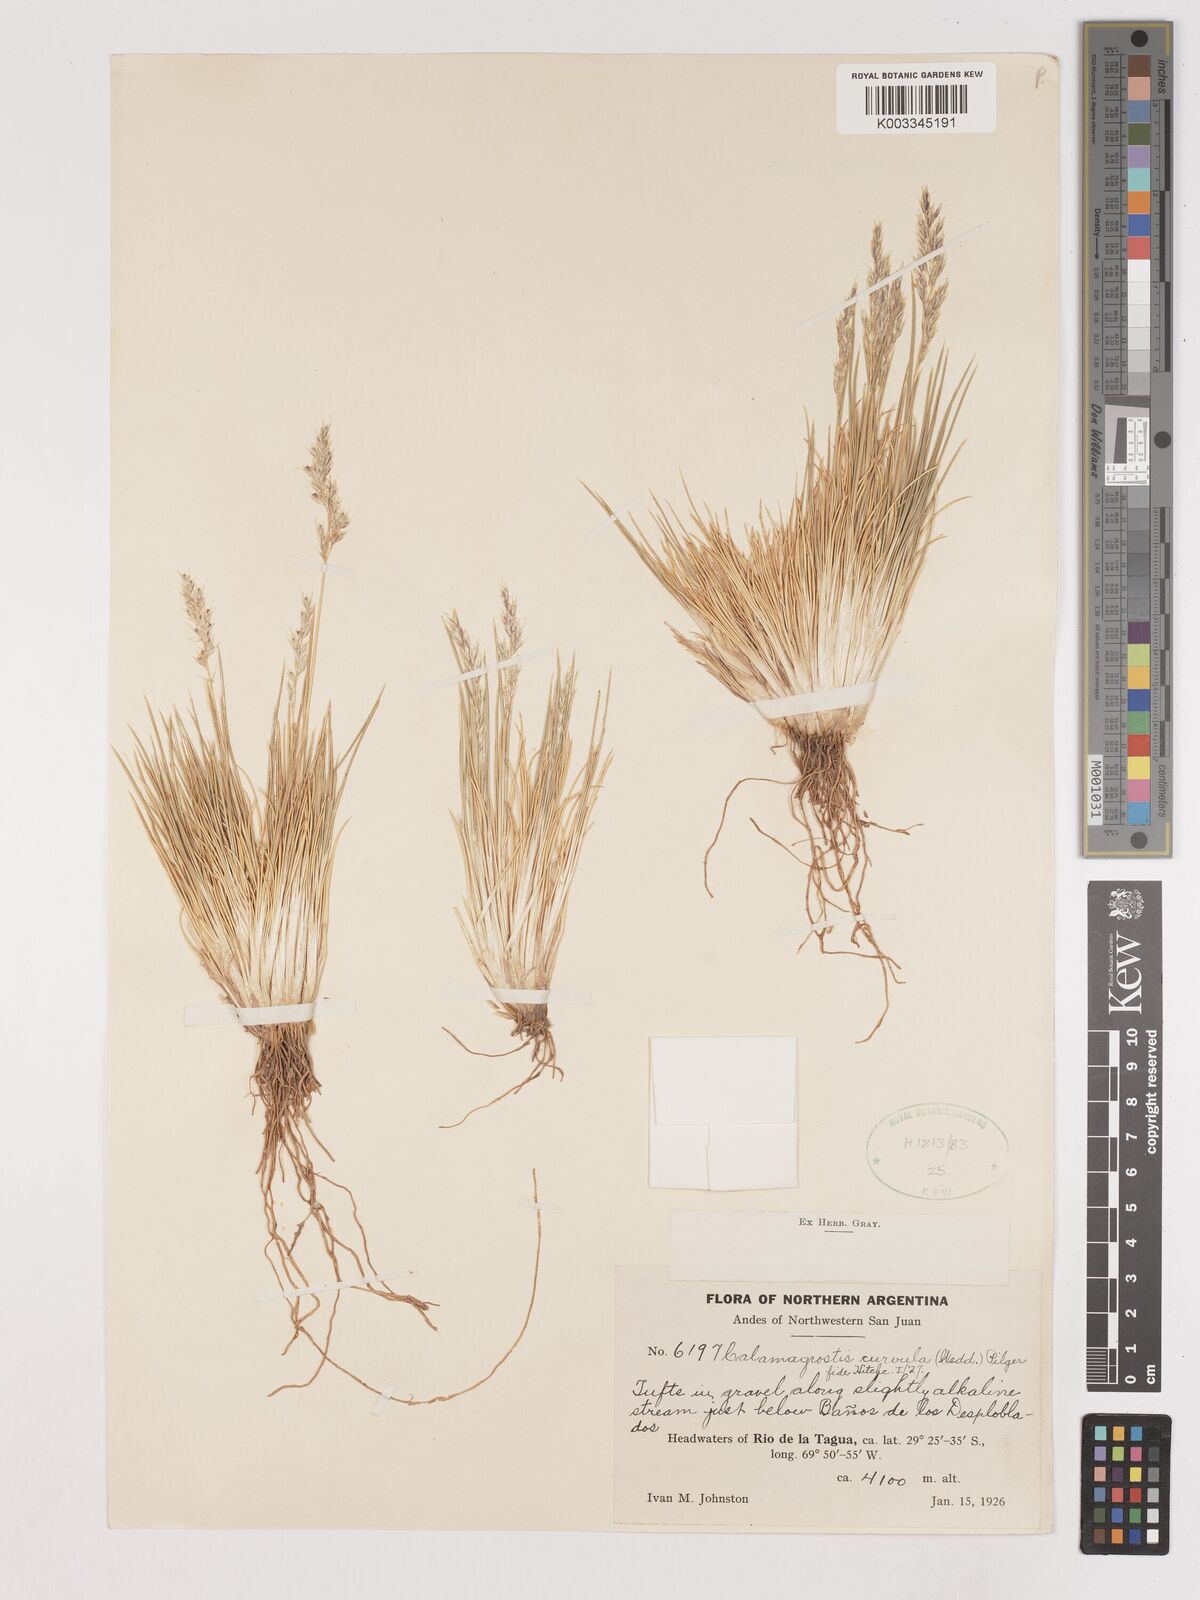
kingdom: Plantae
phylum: Tracheophyta
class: Liliopsida
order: Poales
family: Poaceae
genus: Cinnagrostis
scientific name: Cinnagrostis curvula
